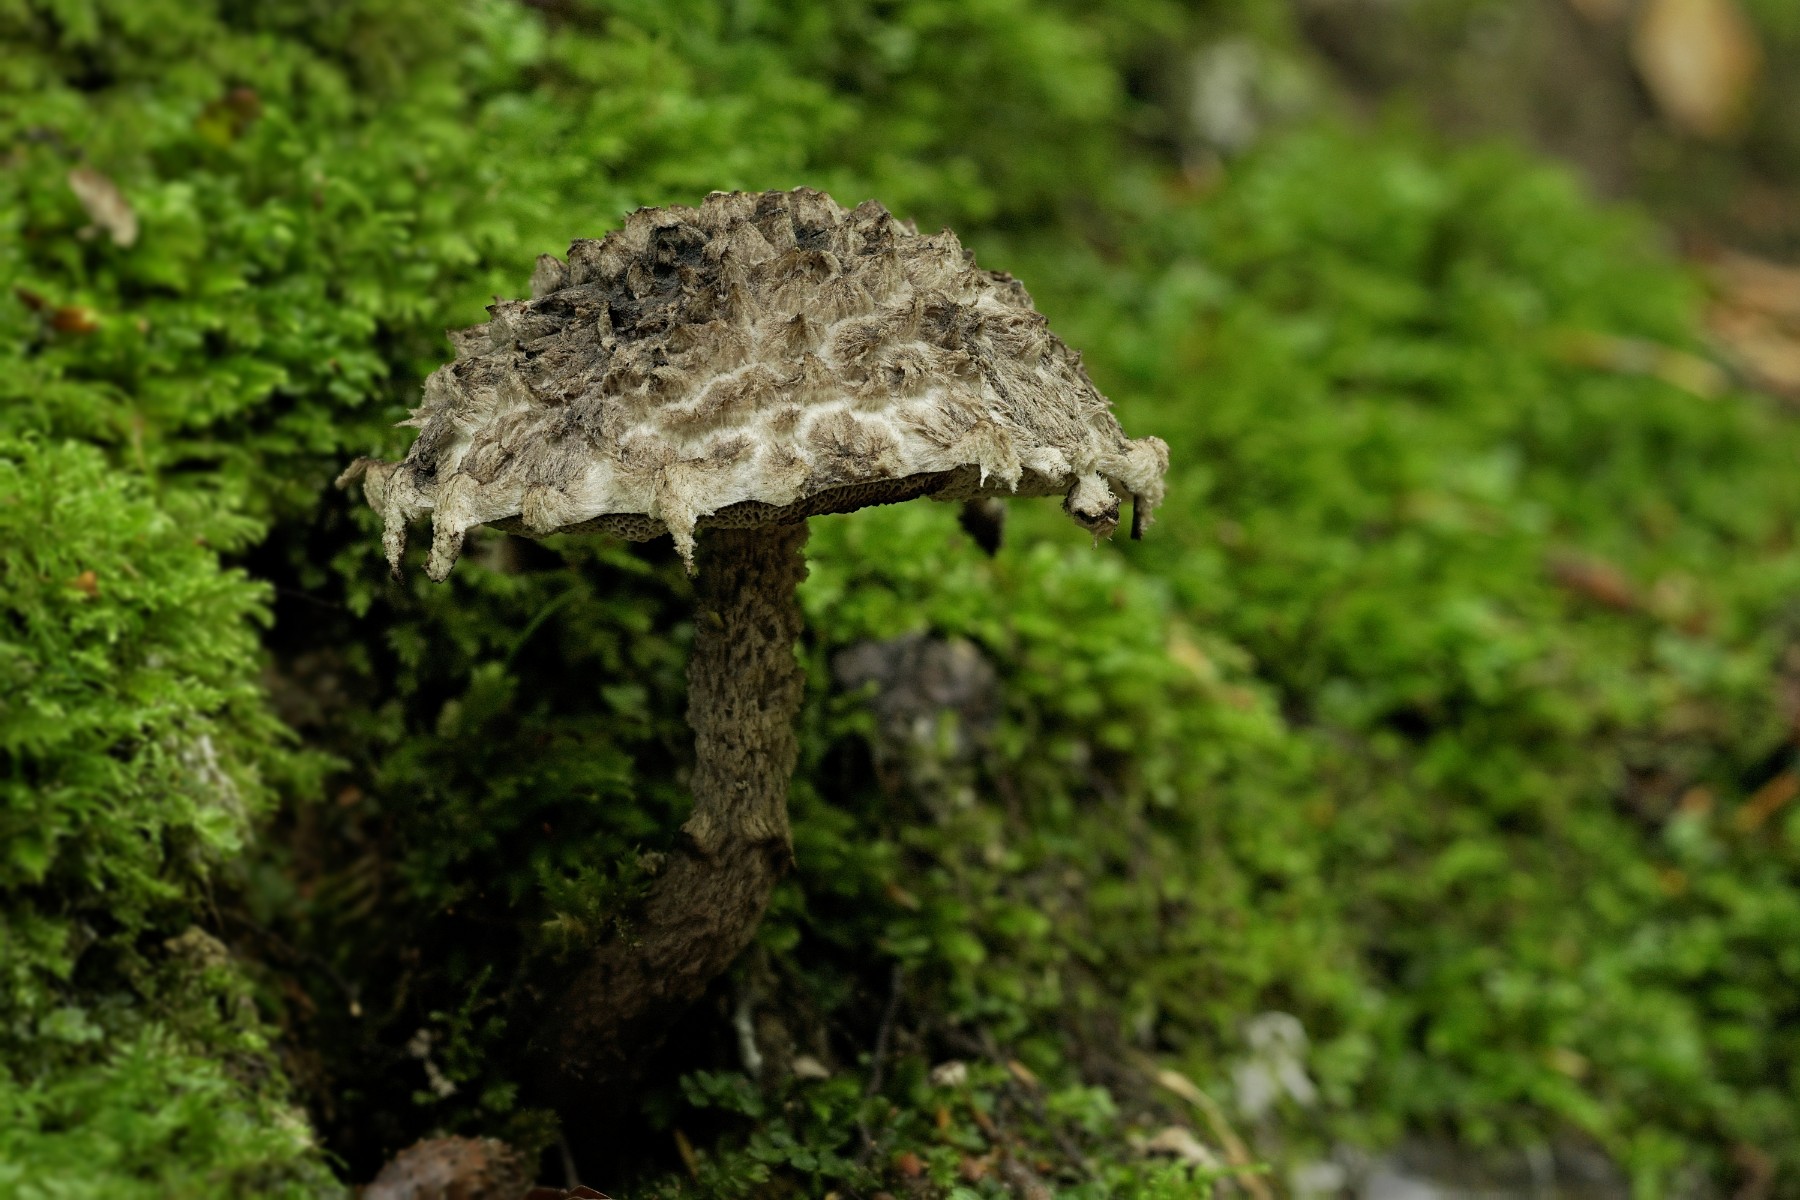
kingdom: Fungi
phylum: Basidiomycota
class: Agaricomycetes
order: Boletales
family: Boletaceae
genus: Strobilomyces
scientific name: Strobilomyces strobilaceus
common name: koglerørhat
